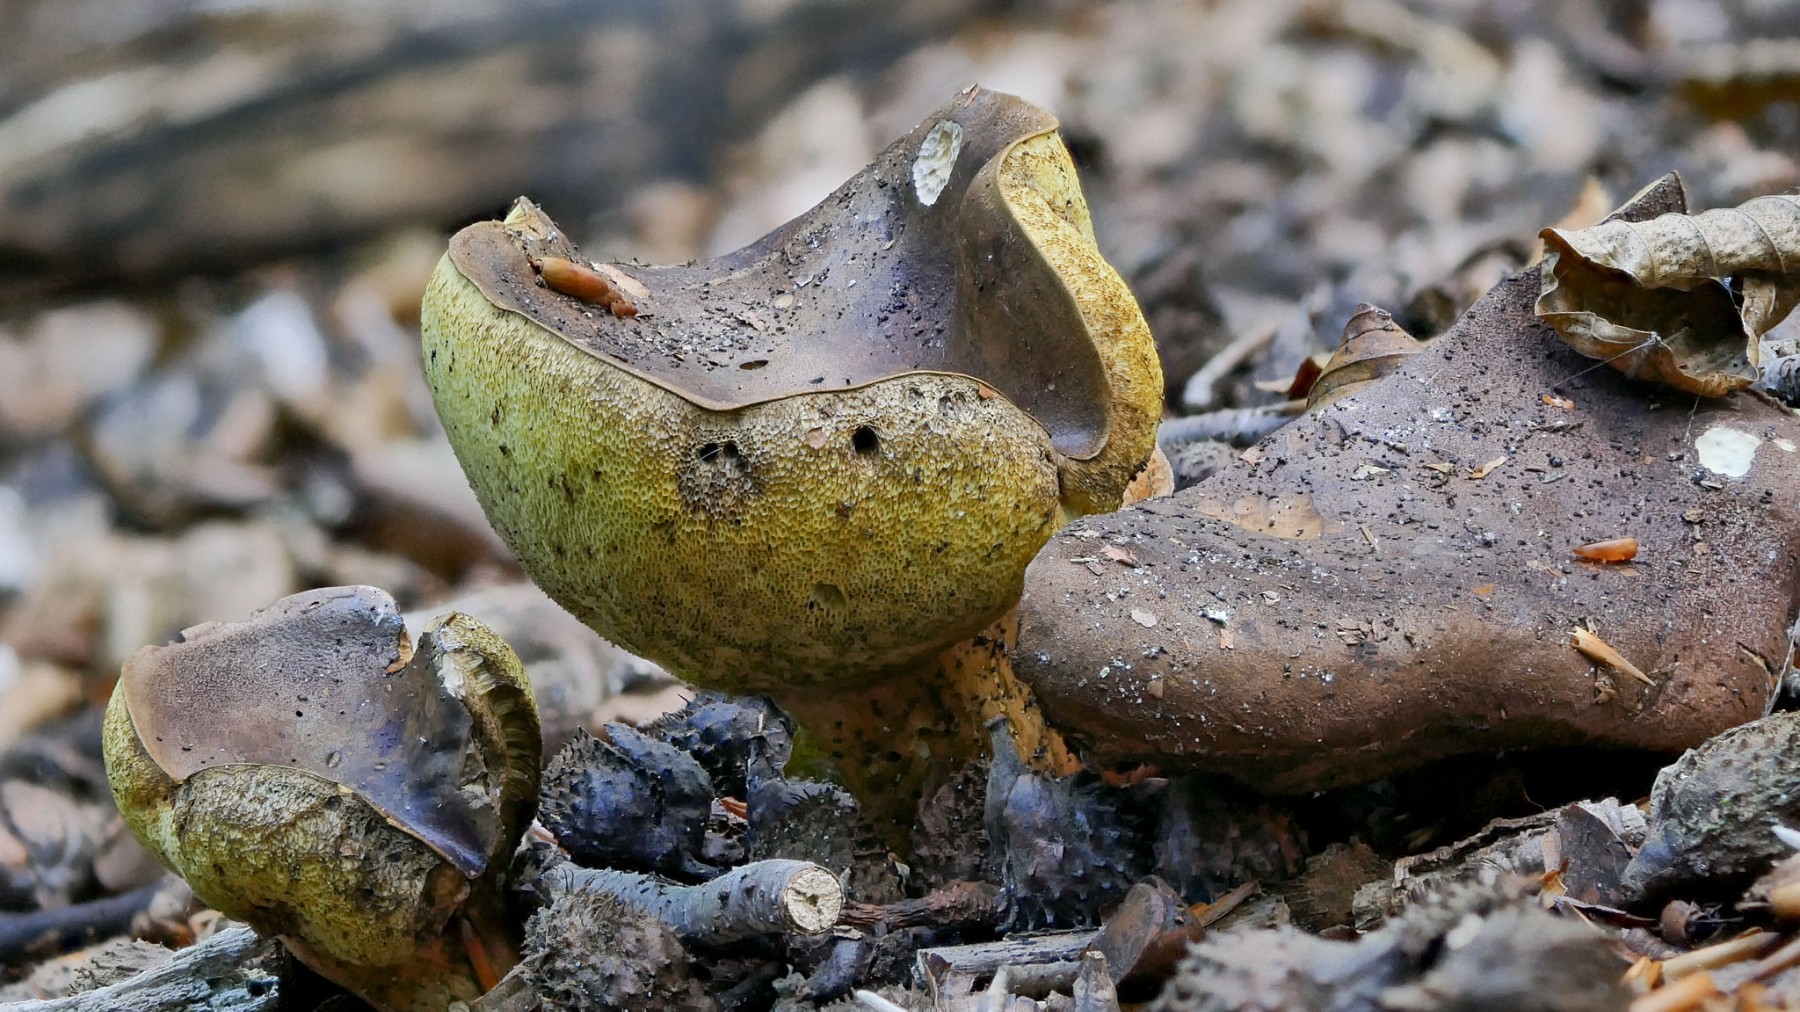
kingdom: Fungi
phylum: Basidiomycota
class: Agaricomycetes
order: Boletales
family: Boletaceae
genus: Imleria
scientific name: Imleria badia
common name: brunstokket rørhat
